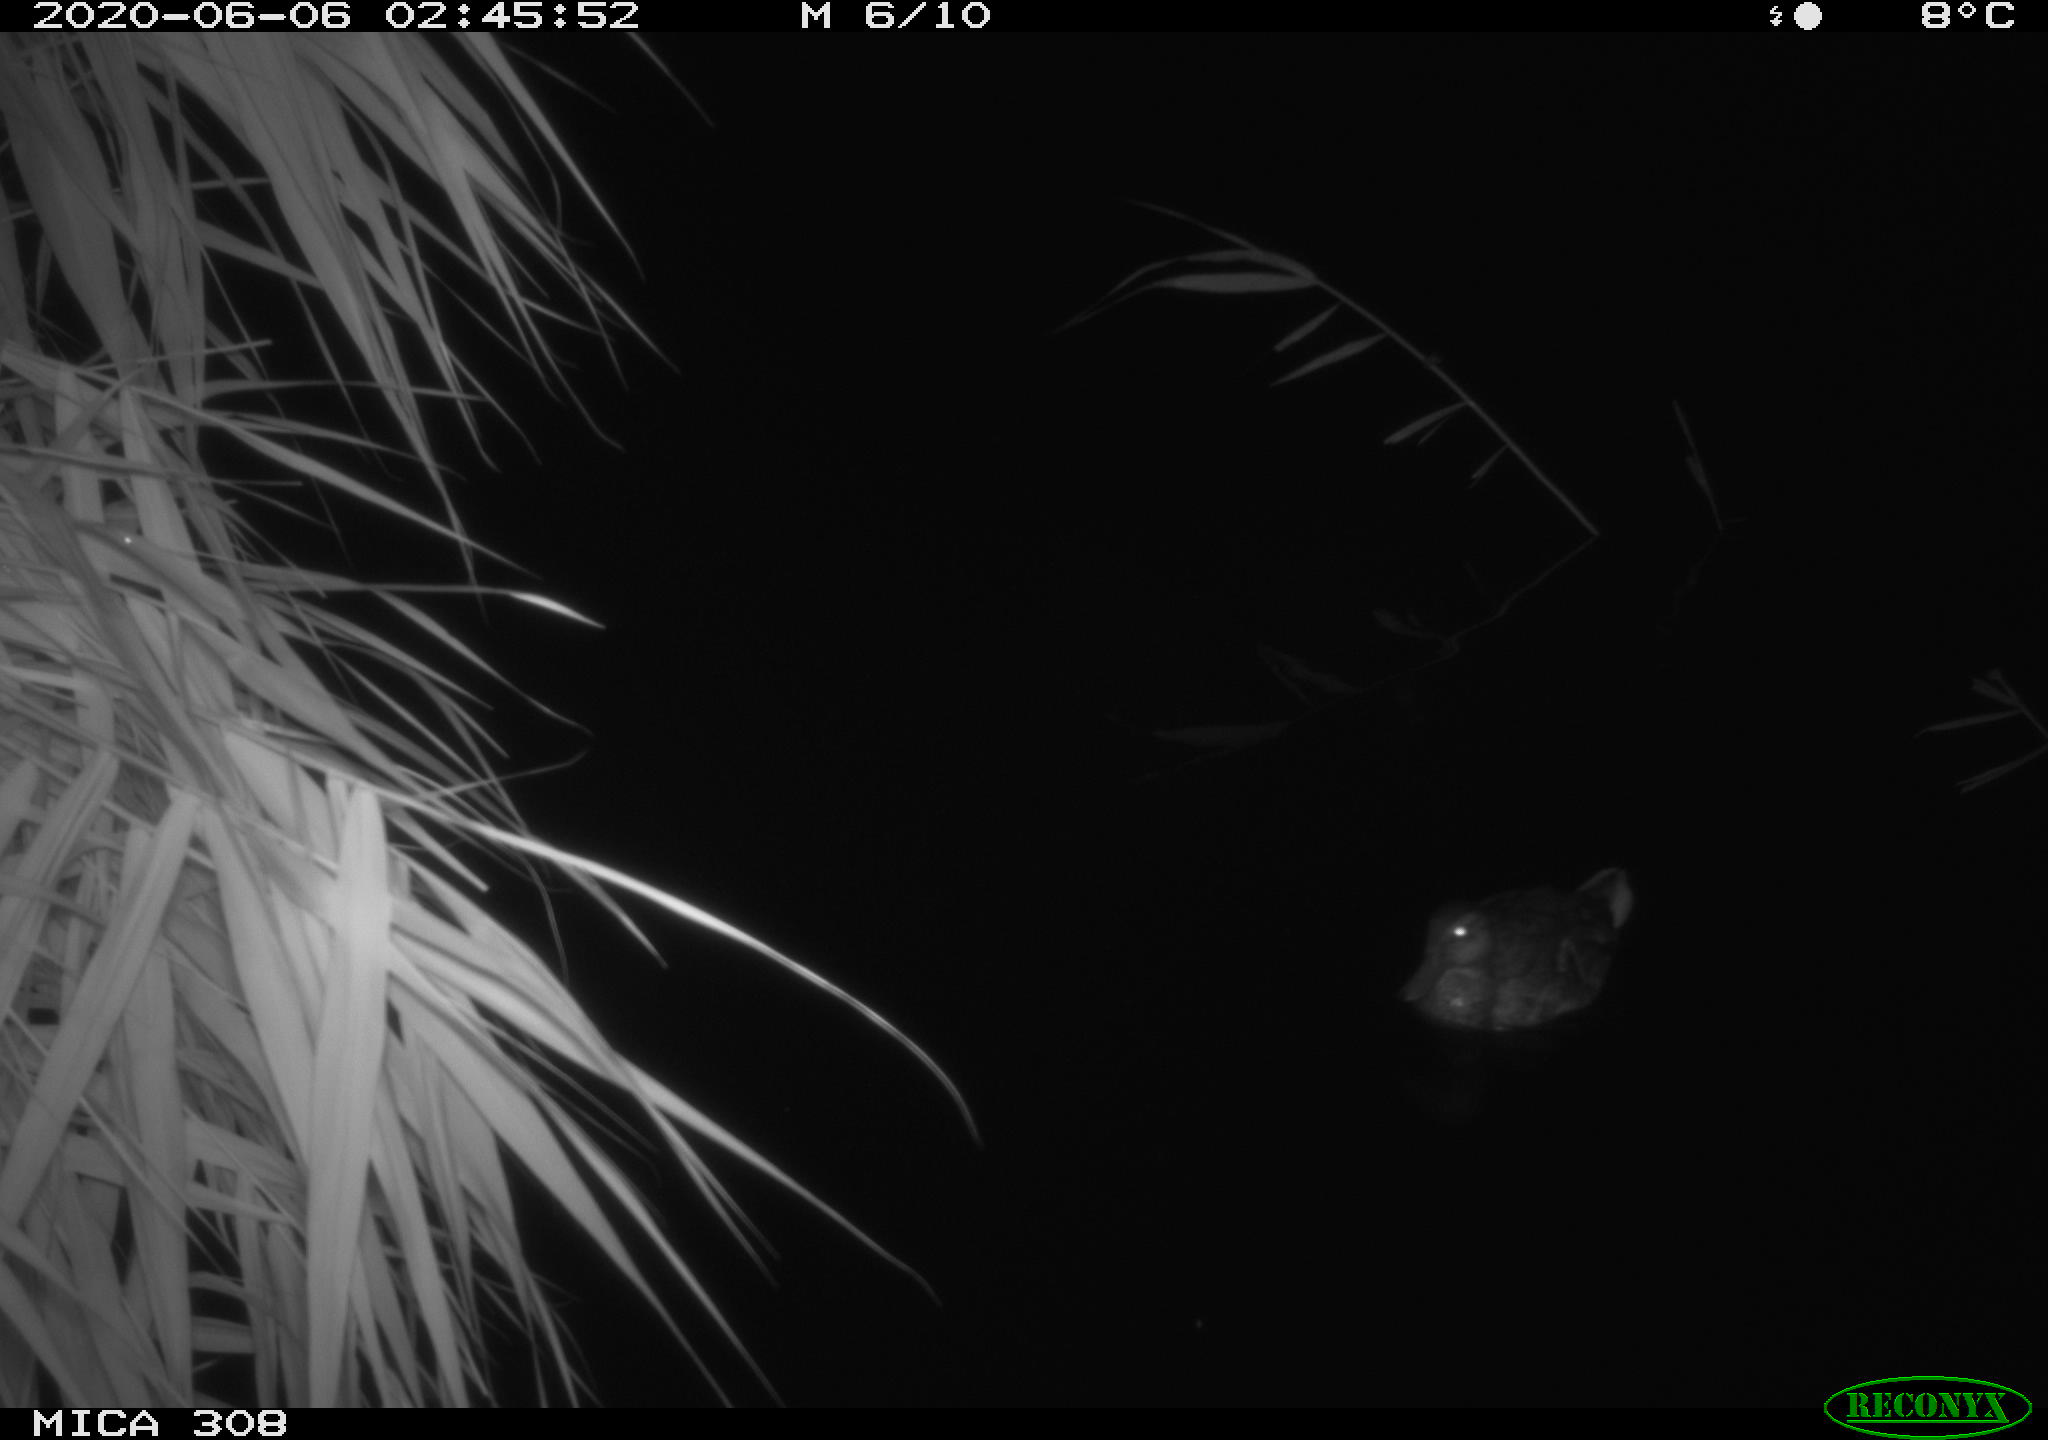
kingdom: Animalia
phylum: Chordata
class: Aves
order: Anseriformes
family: Anatidae
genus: Anas
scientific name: Anas platyrhynchos
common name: Mallard
